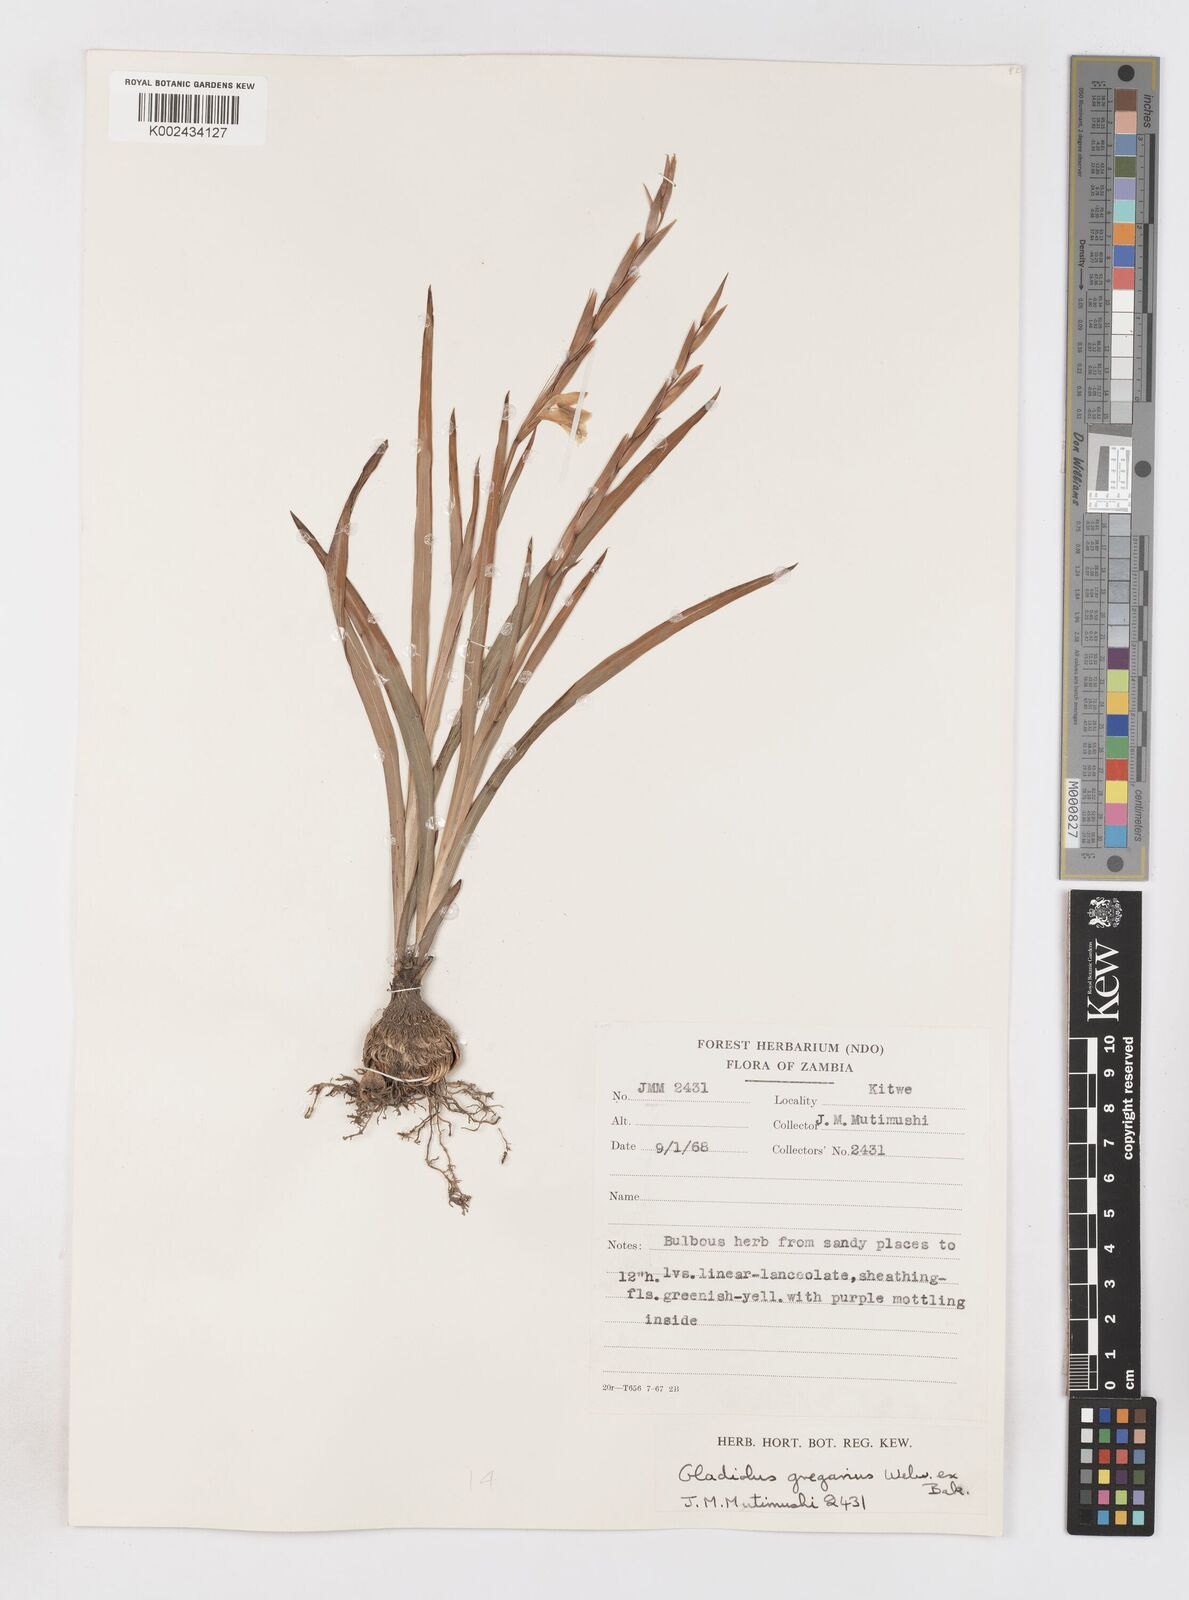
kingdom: Plantae
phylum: Tracheophyta
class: Liliopsida
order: Asparagales
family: Iridaceae
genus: Gladiolus
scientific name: Gladiolus gregarius
